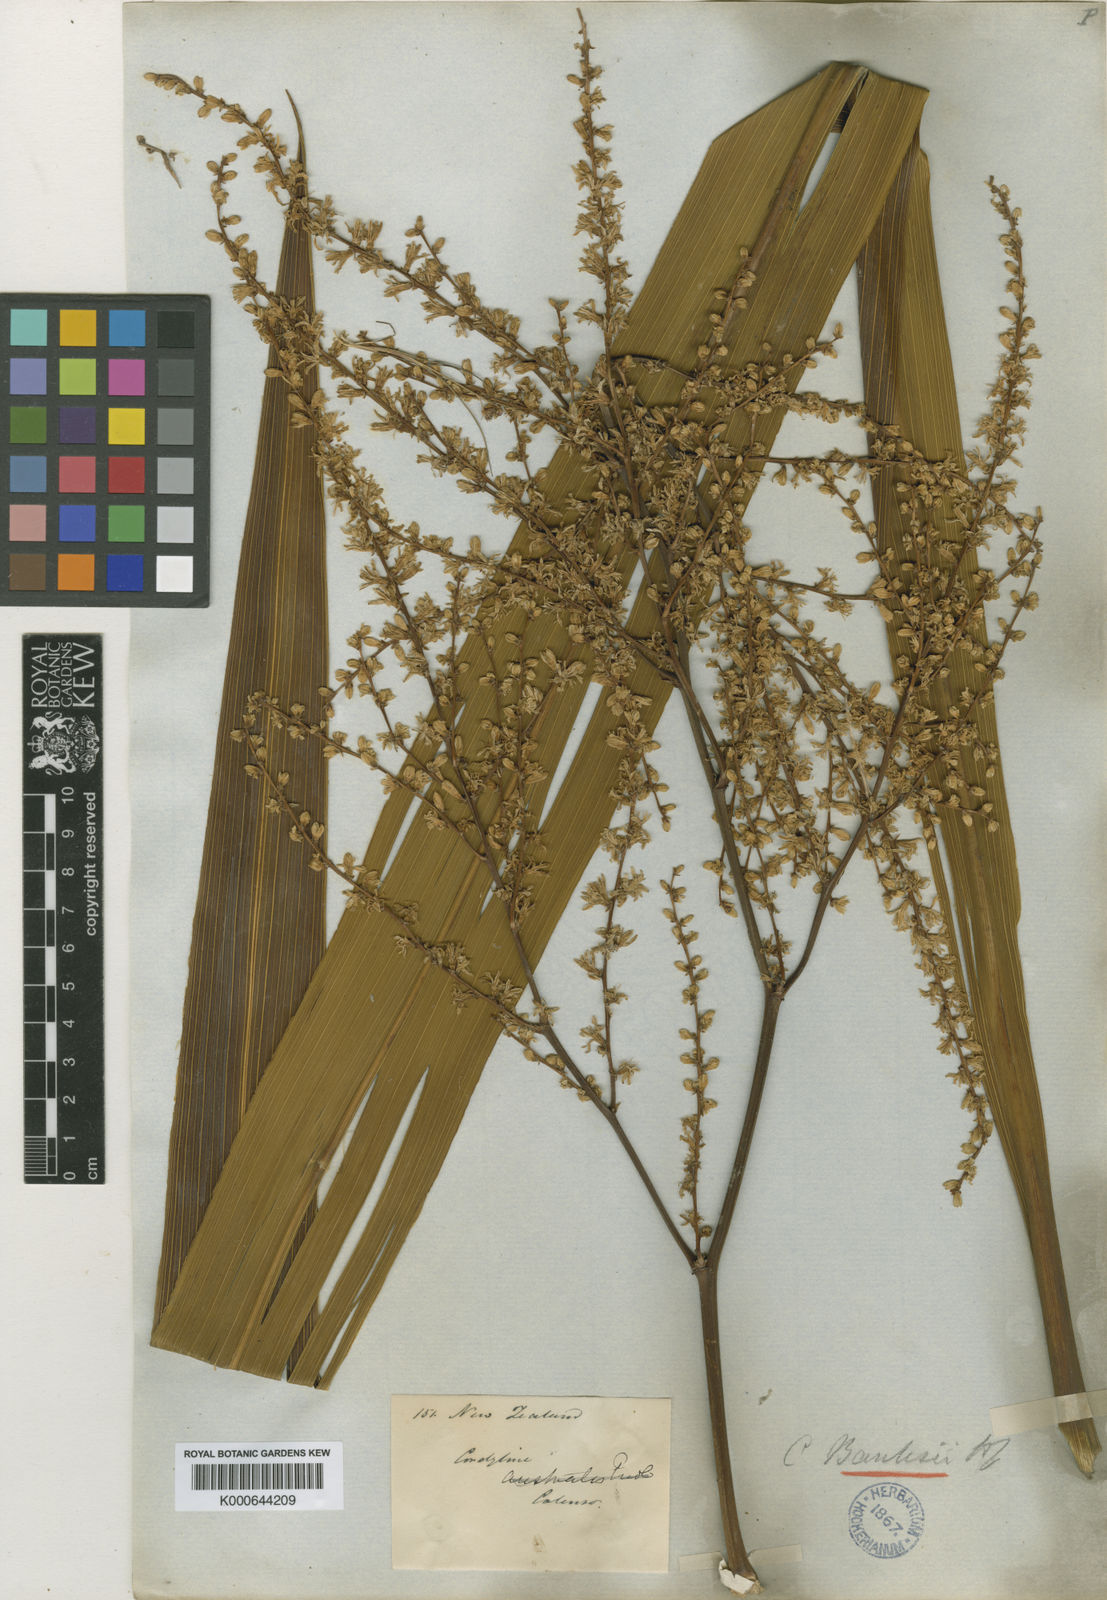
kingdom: Plantae
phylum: Tracheophyta
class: Liliopsida
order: Asparagales
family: Asparagaceae
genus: Cordyline
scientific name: Cordyline banksii
